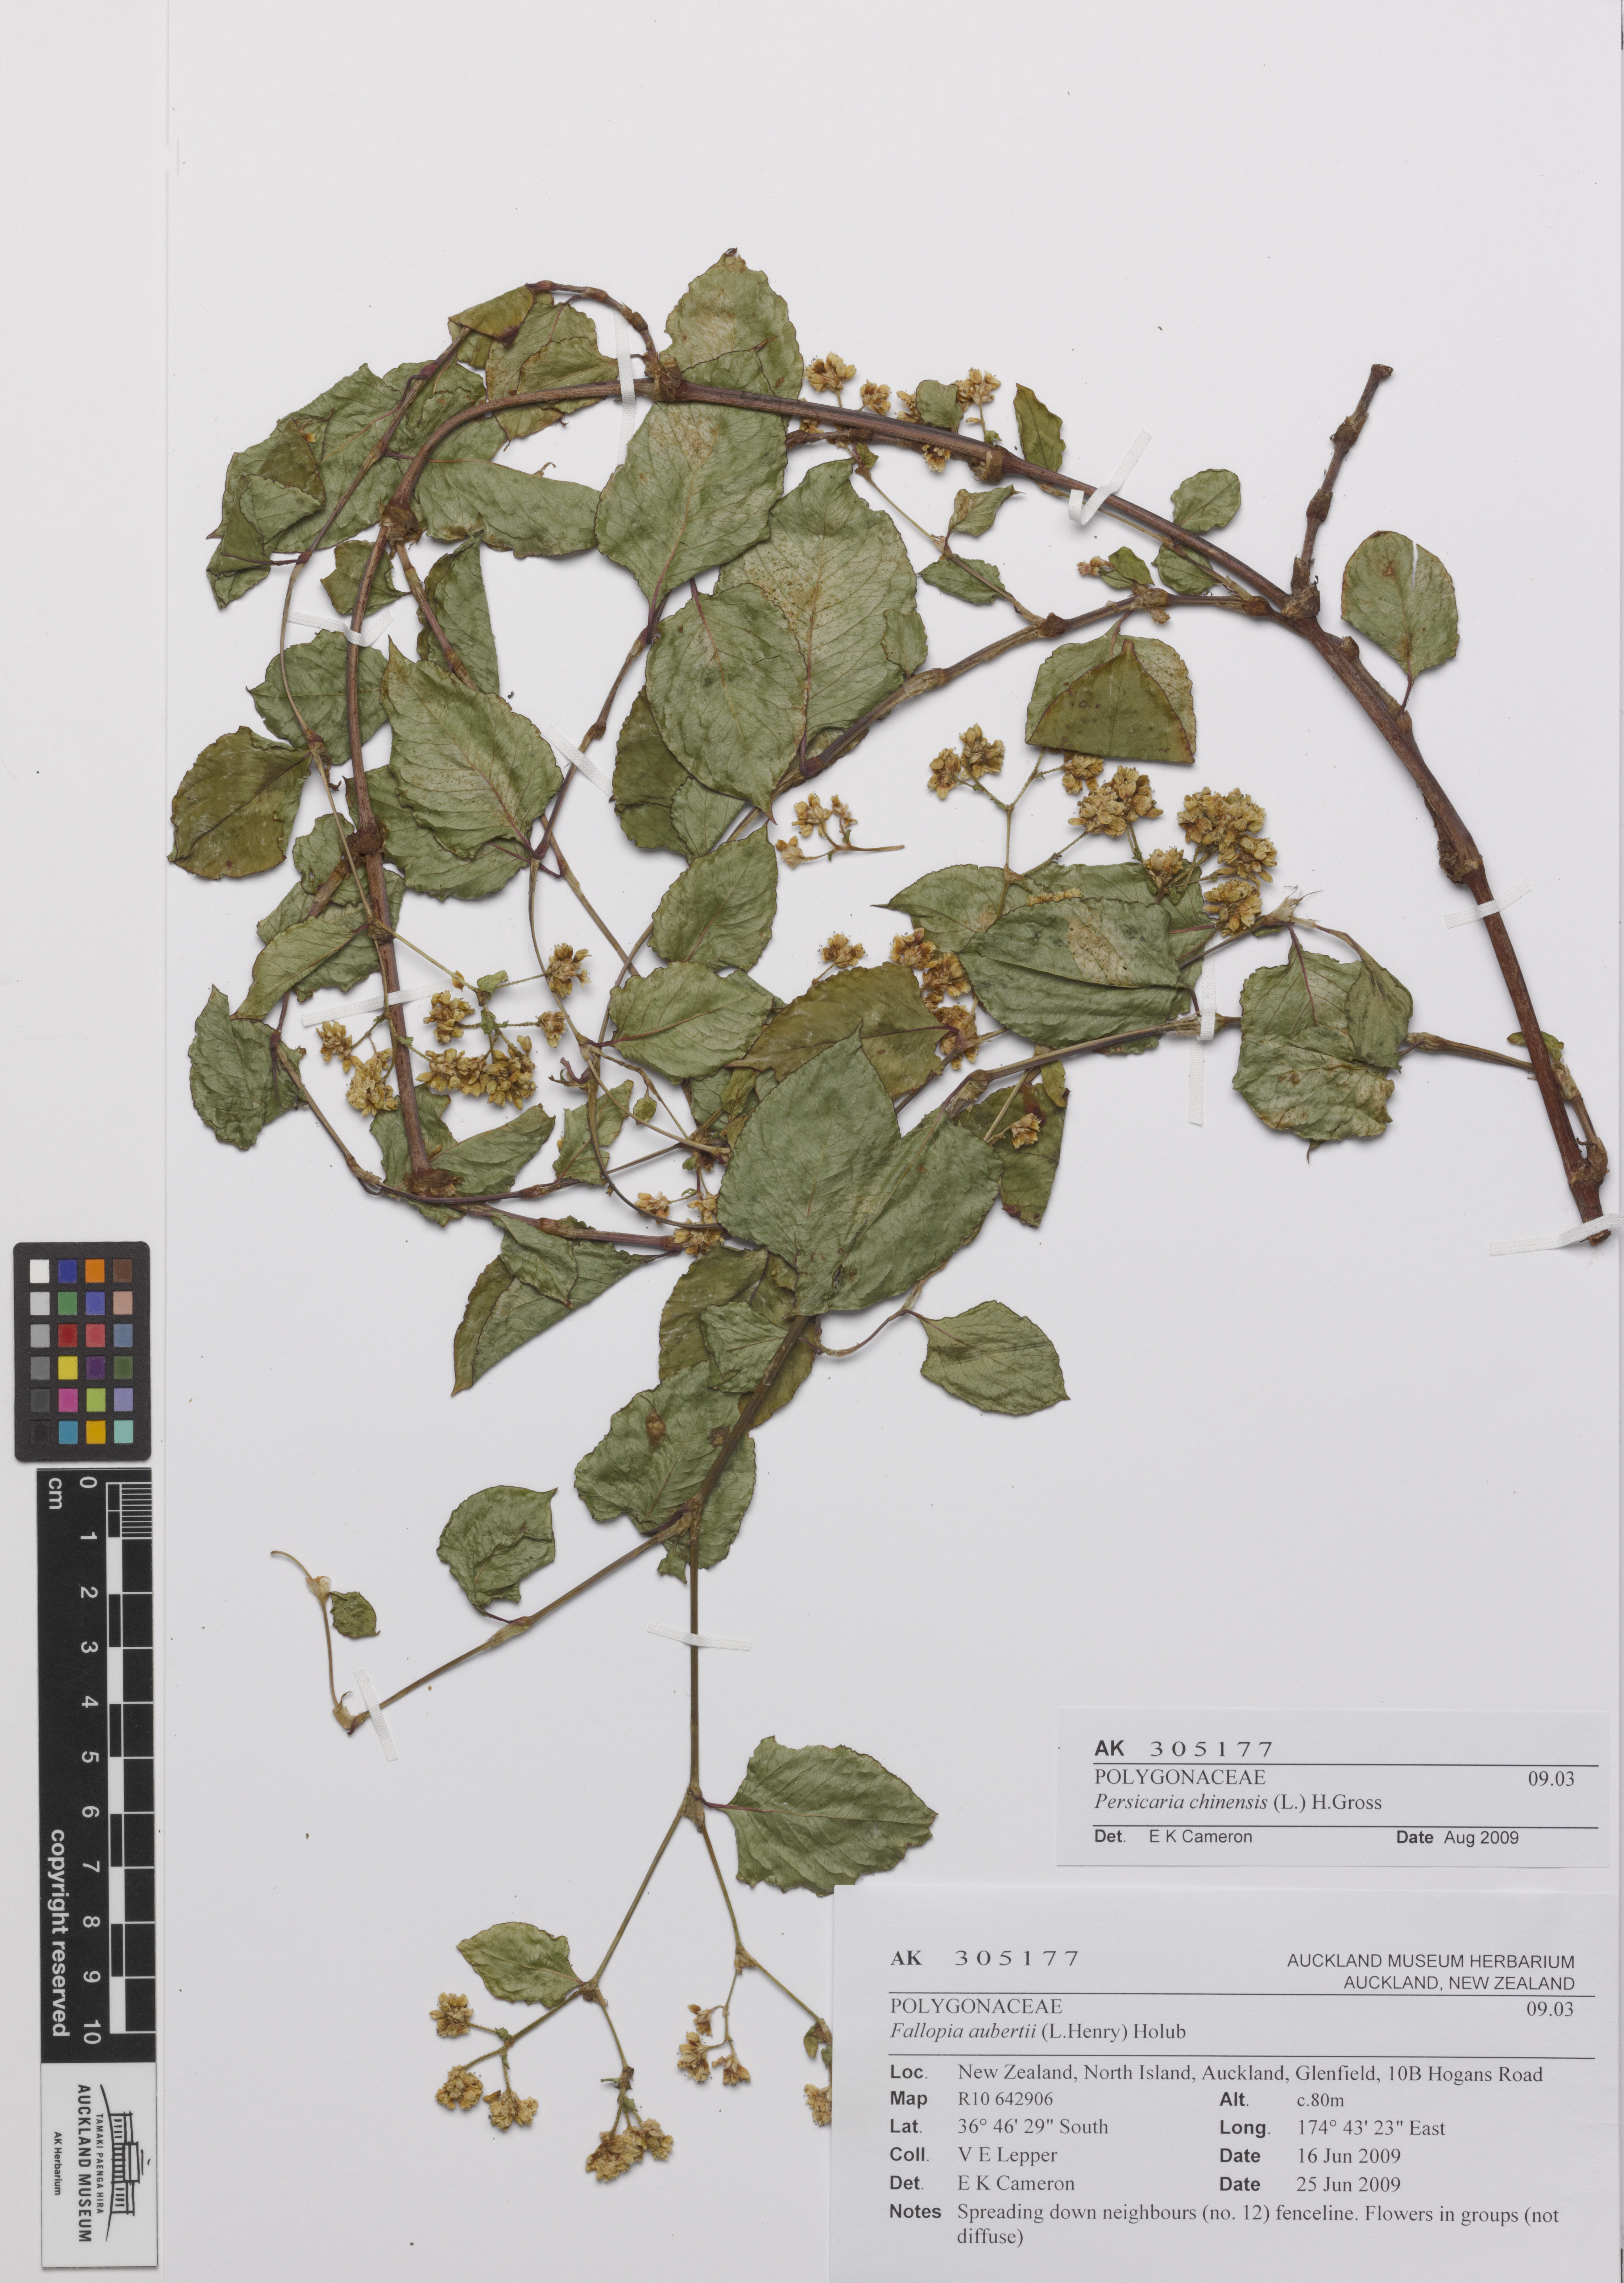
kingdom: Plantae
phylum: Tracheophyta
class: Magnoliopsida
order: Caryophyllales
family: Polygonaceae
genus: Persicaria
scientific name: Persicaria chinensis
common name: Chinese knotweed
